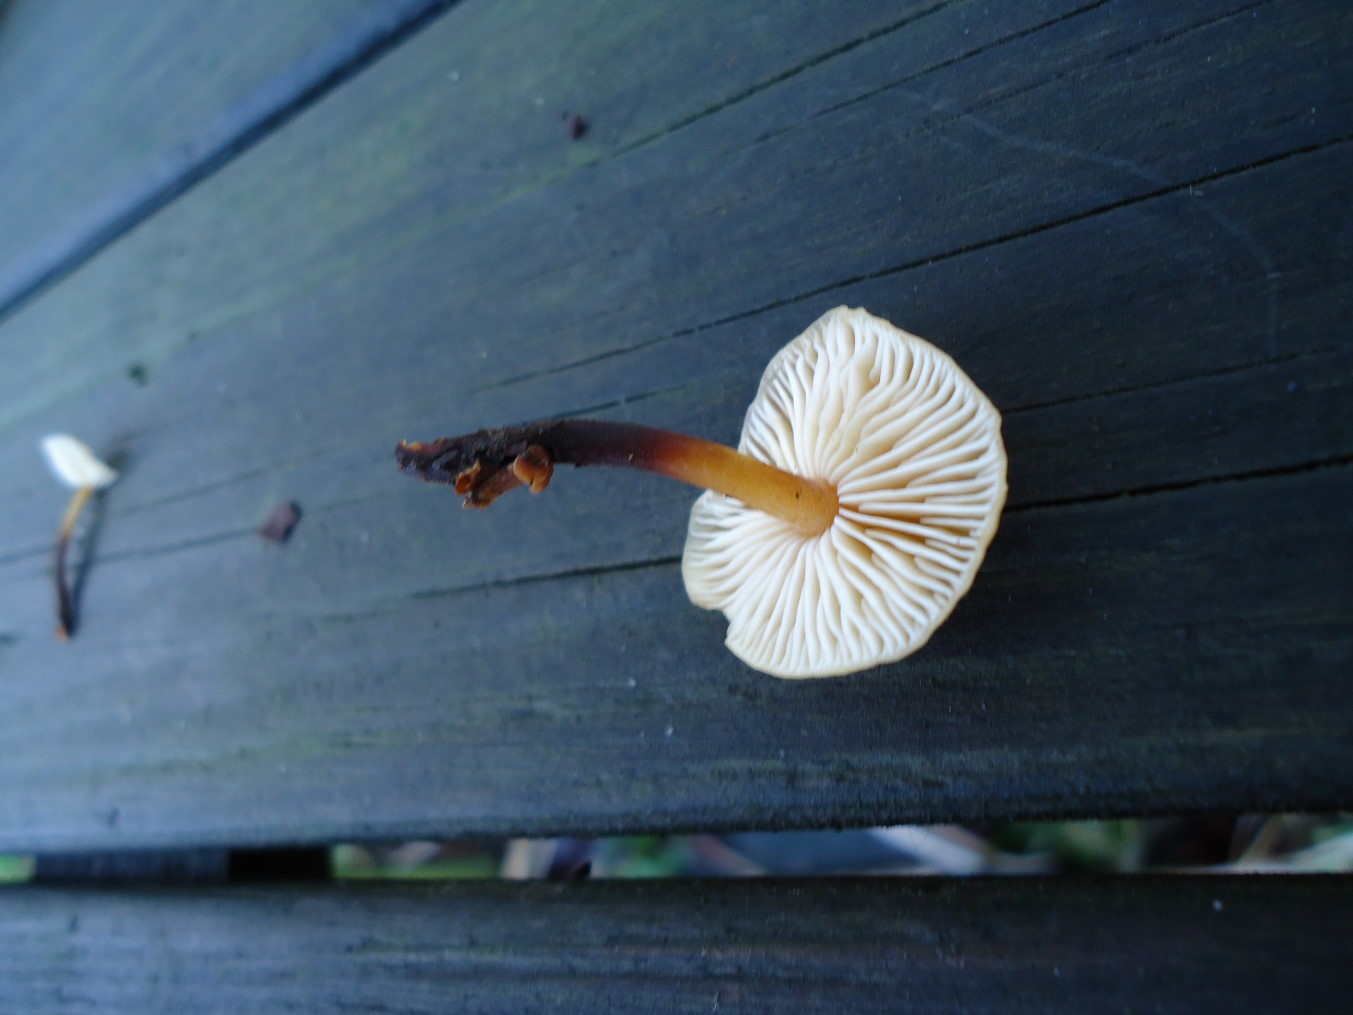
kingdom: Fungi
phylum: Basidiomycota
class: Agaricomycetes
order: Agaricales
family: Physalacriaceae
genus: Flammulina
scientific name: Flammulina velutipes
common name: gul fløjlsfod
